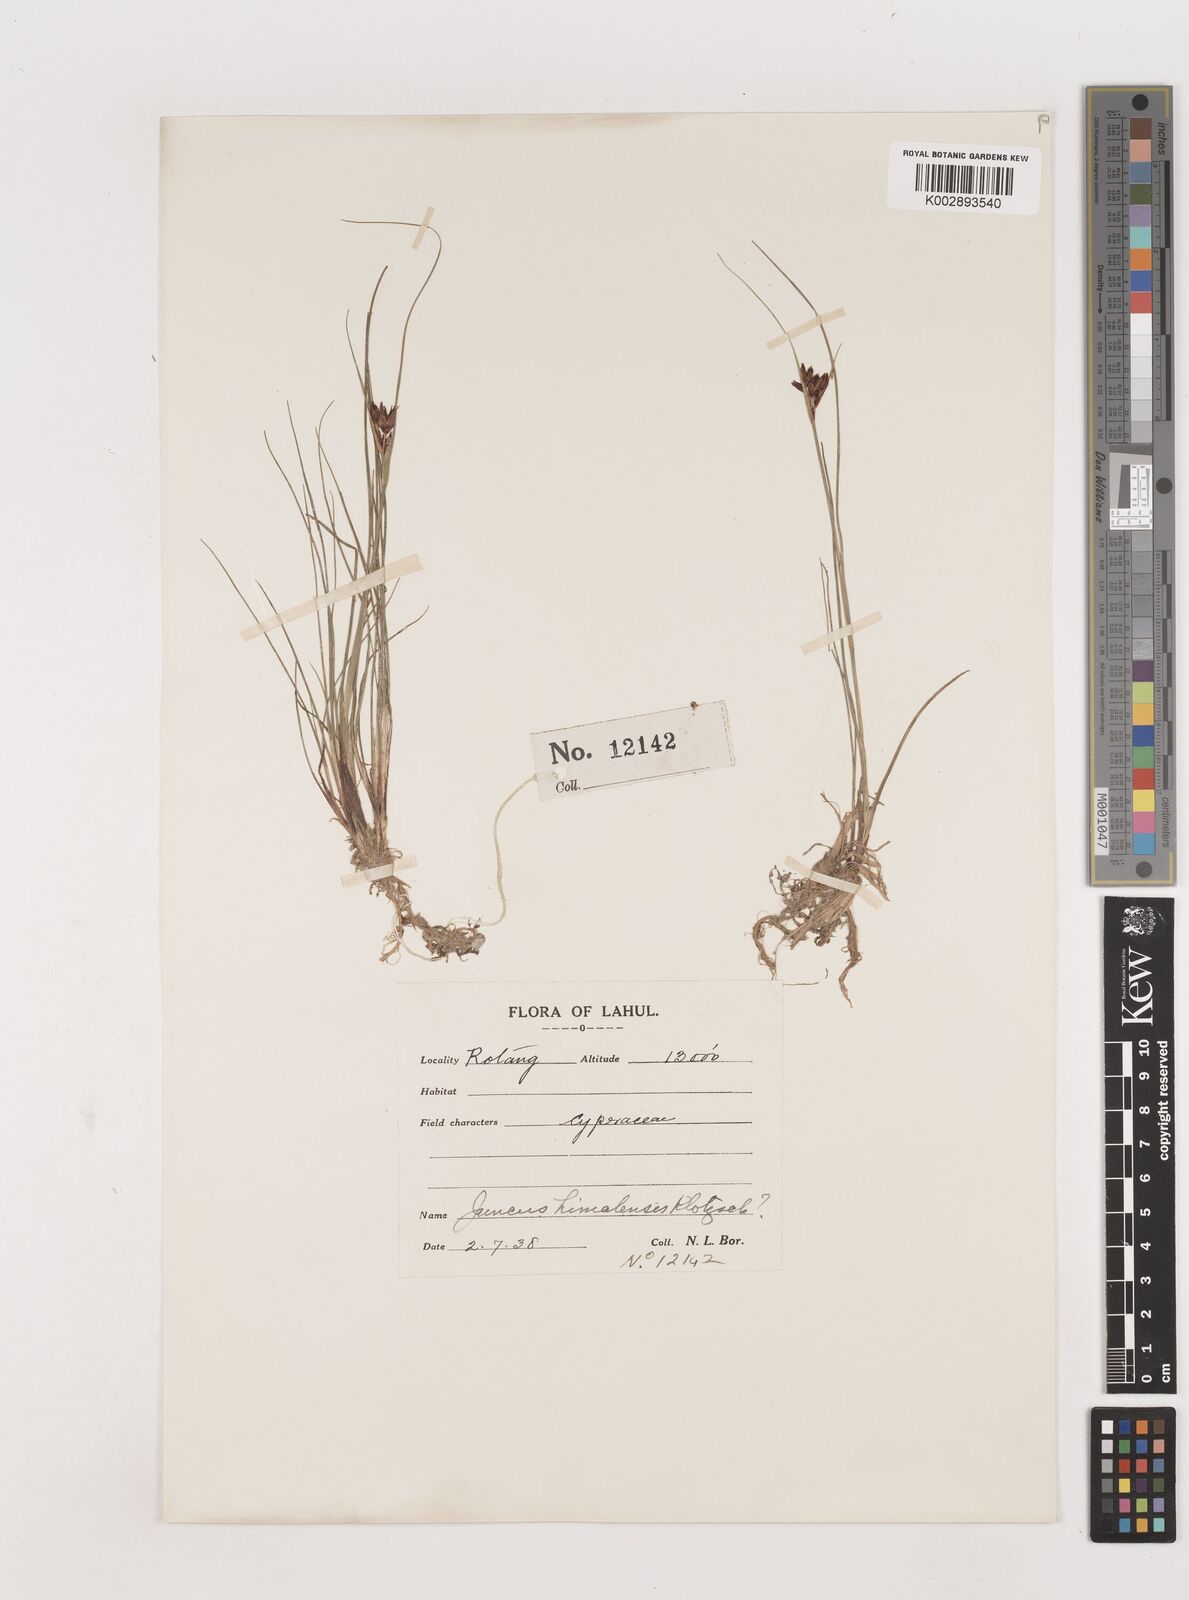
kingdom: Plantae
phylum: Tracheophyta
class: Liliopsida
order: Poales
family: Juncaceae
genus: Juncus
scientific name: Juncus himalensis
